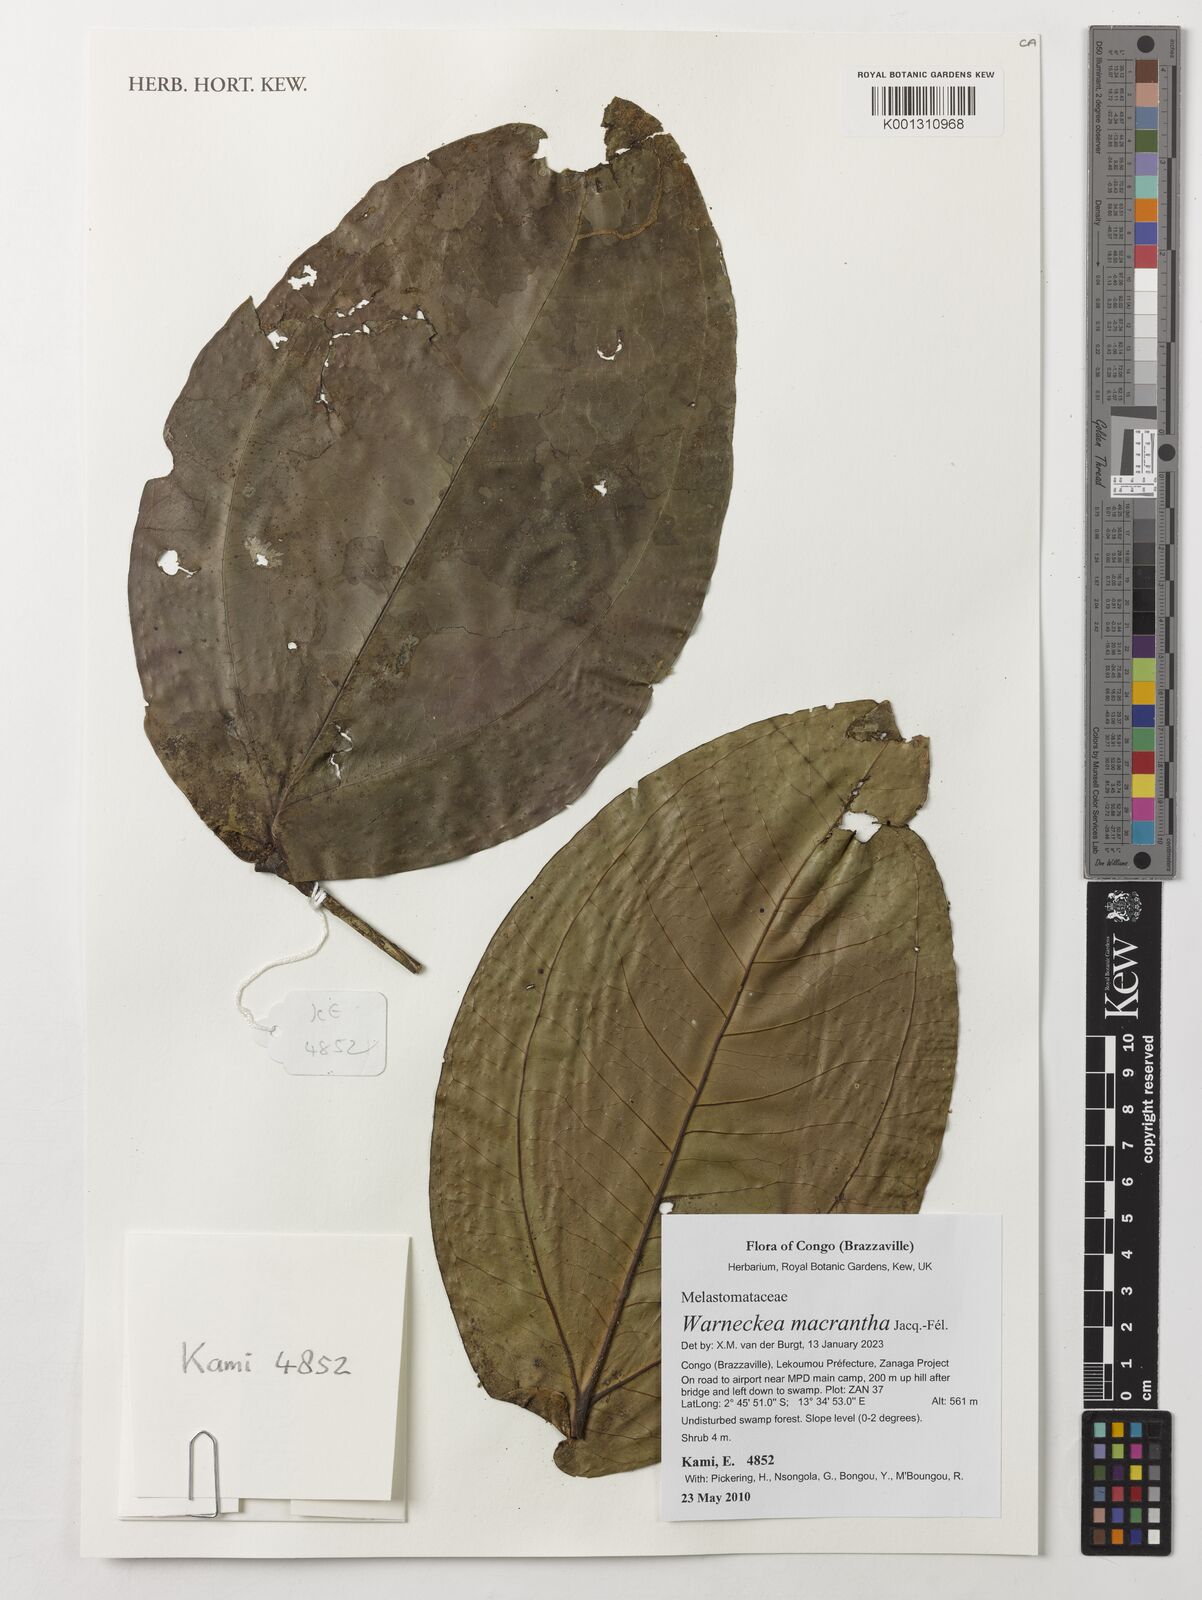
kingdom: Plantae
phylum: Tracheophyta
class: Magnoliopsida
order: Myrtales
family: Melastomataceae
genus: Warneckea
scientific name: Warneckea macrantha
